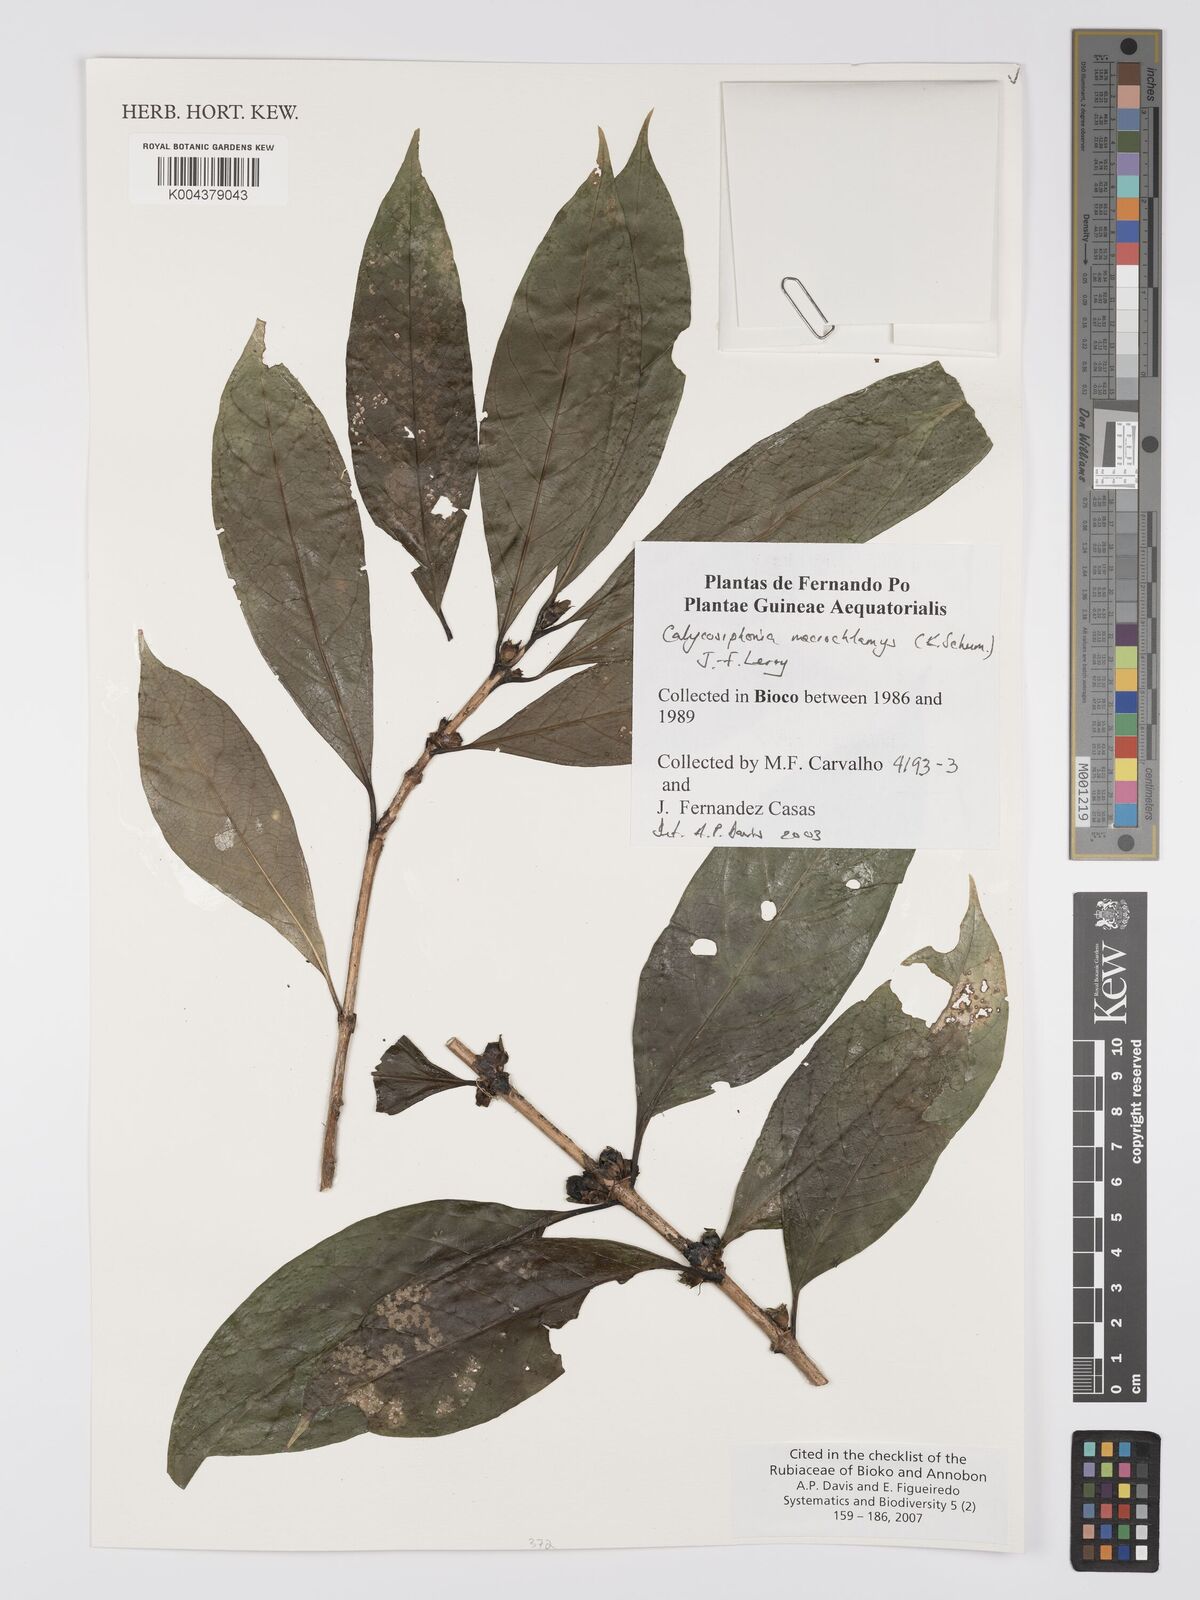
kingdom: Plantae
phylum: Tracheophyta
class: Magnoliopsida
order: Gentianales
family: Rubiaceae
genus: Calycosiphonia
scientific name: Calycosiphonia macrochlamys
